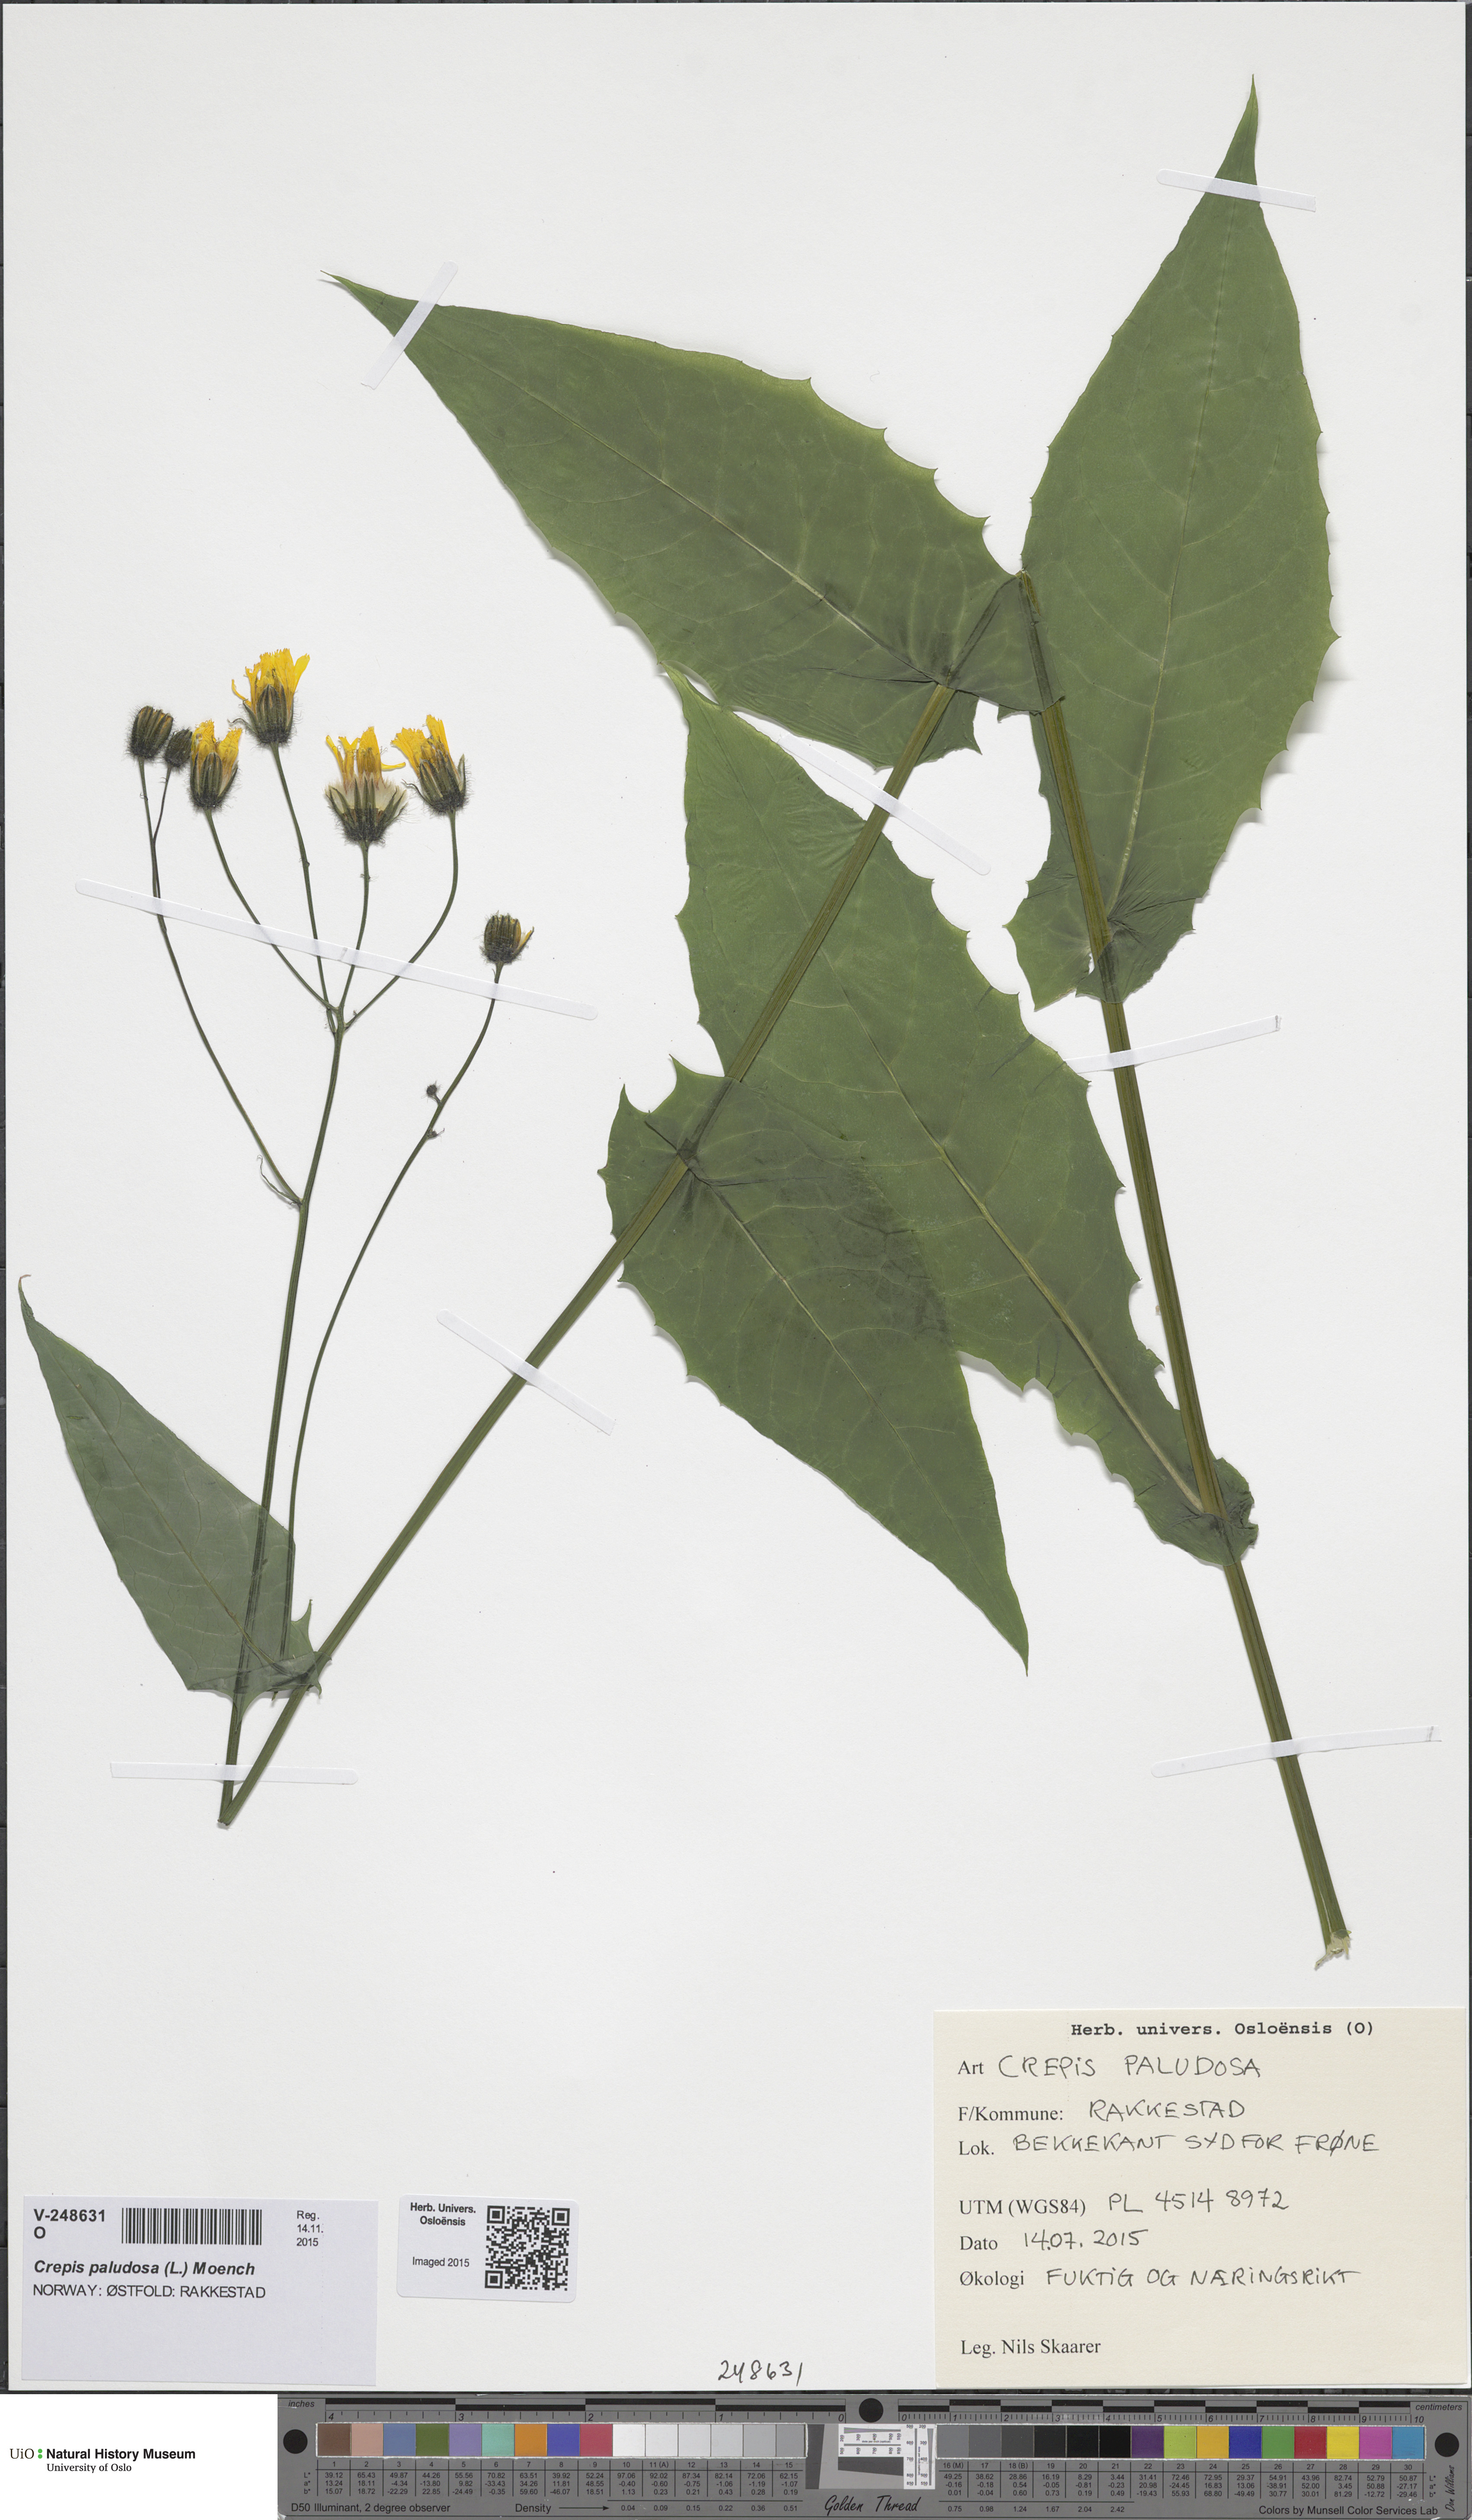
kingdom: Plantae
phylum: Tracheophyta
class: Magnoliopsida
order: Asterales
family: Asteraceae
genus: Crepis
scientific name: Crepis paludosa
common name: Marsh hawk's-beard
